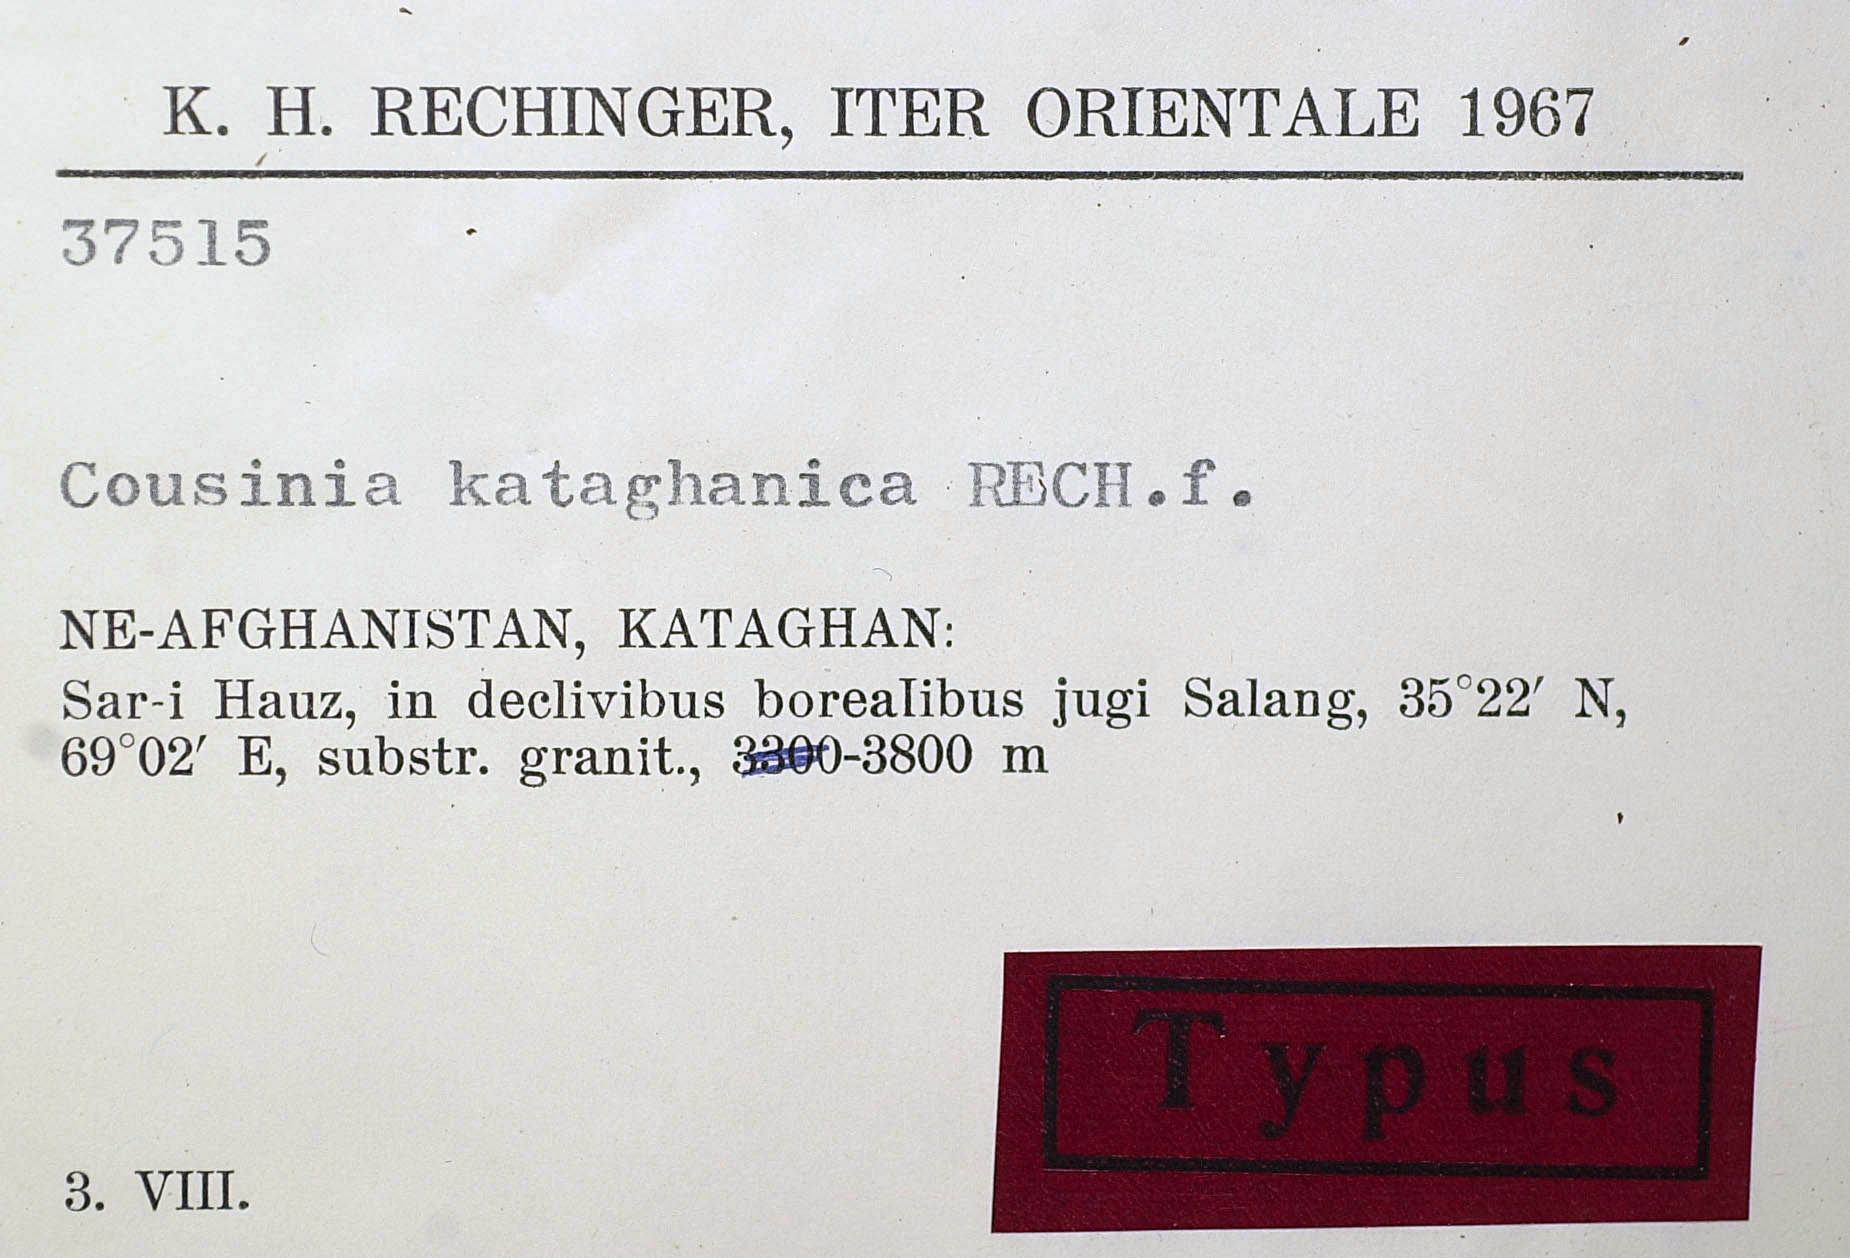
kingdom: Plantae
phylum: Tracheophyta
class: Magnoliopsida
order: Asterales
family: Asteraceae
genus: Cousinia
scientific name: Cousinia kataghanica
